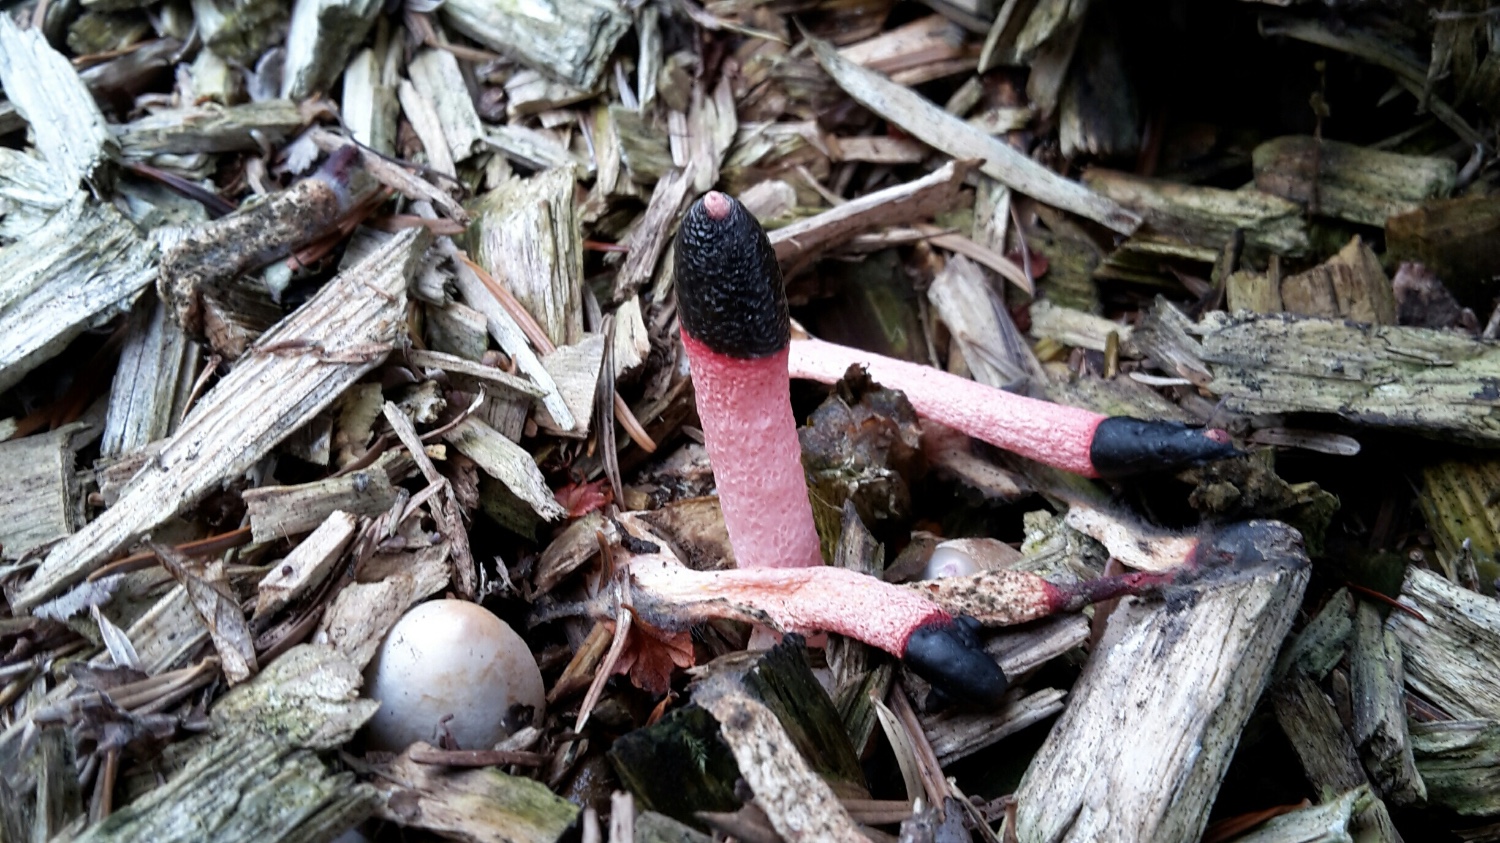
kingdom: Fungi
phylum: Basidiomycota
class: Agaricomycetes
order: Phallales
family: Phallaceae
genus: Mutinus
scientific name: Mutinus ravenelii
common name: rød stinksvamp
